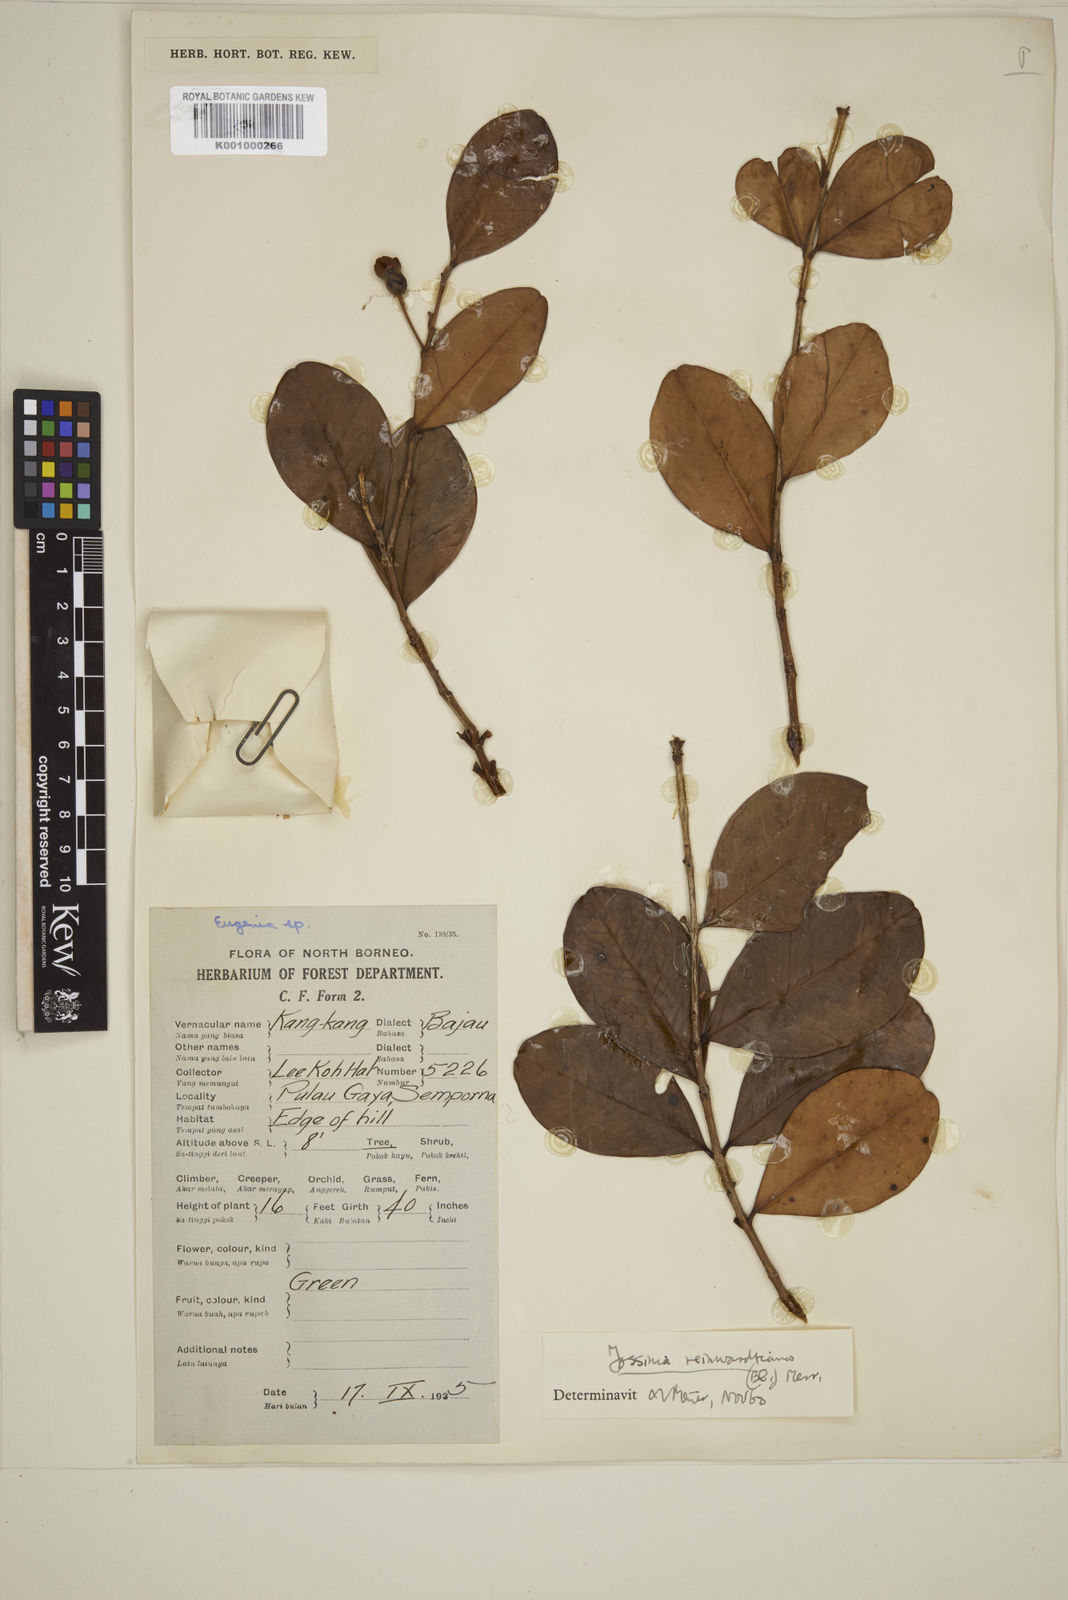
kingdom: Plantae
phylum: Tracheophyta
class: Magnoliopsida
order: Myrtales
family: Myrtaceae
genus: Eugenia
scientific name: Eugenia reinwardtiana
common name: Cedar bay-cherry
